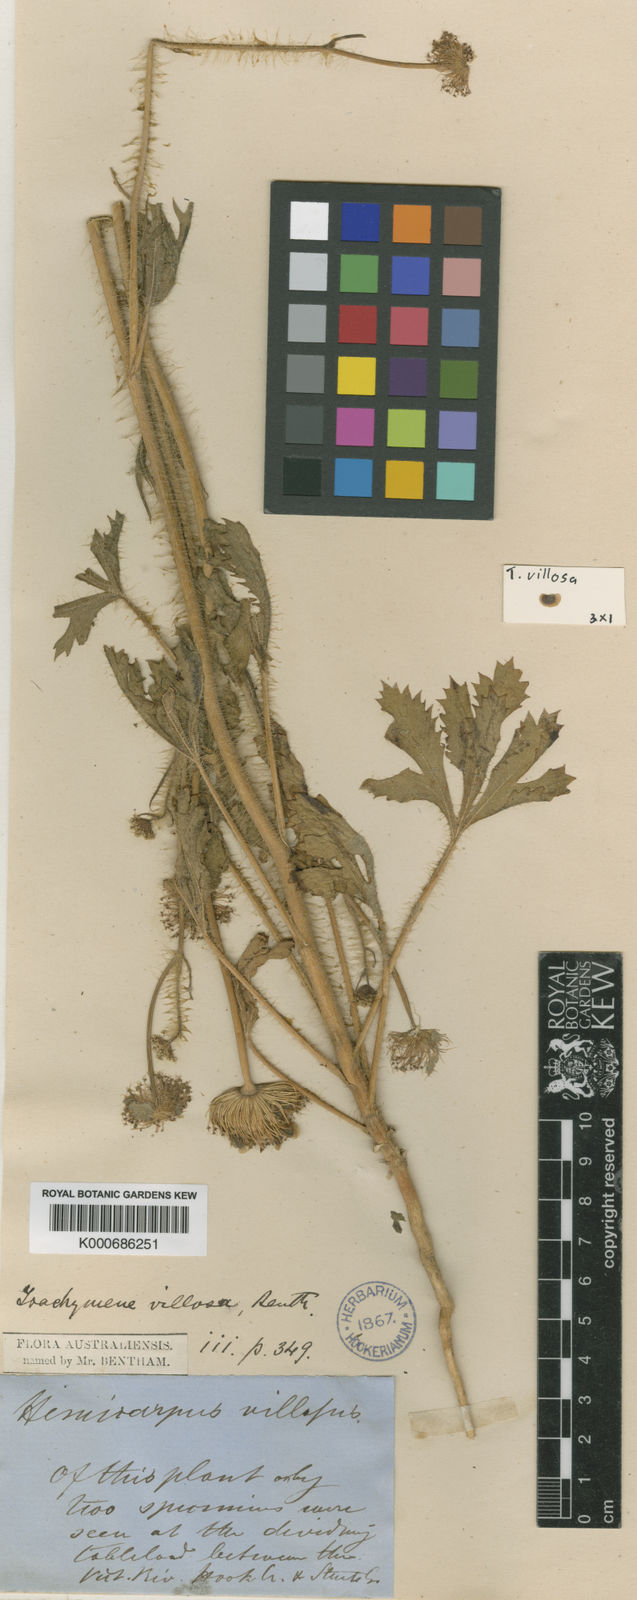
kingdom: Plantae
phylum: Tracheophyta
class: Magnoliopsida
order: Apiales
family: Araliaceae
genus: Trachymene
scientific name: Trachymene villosa
